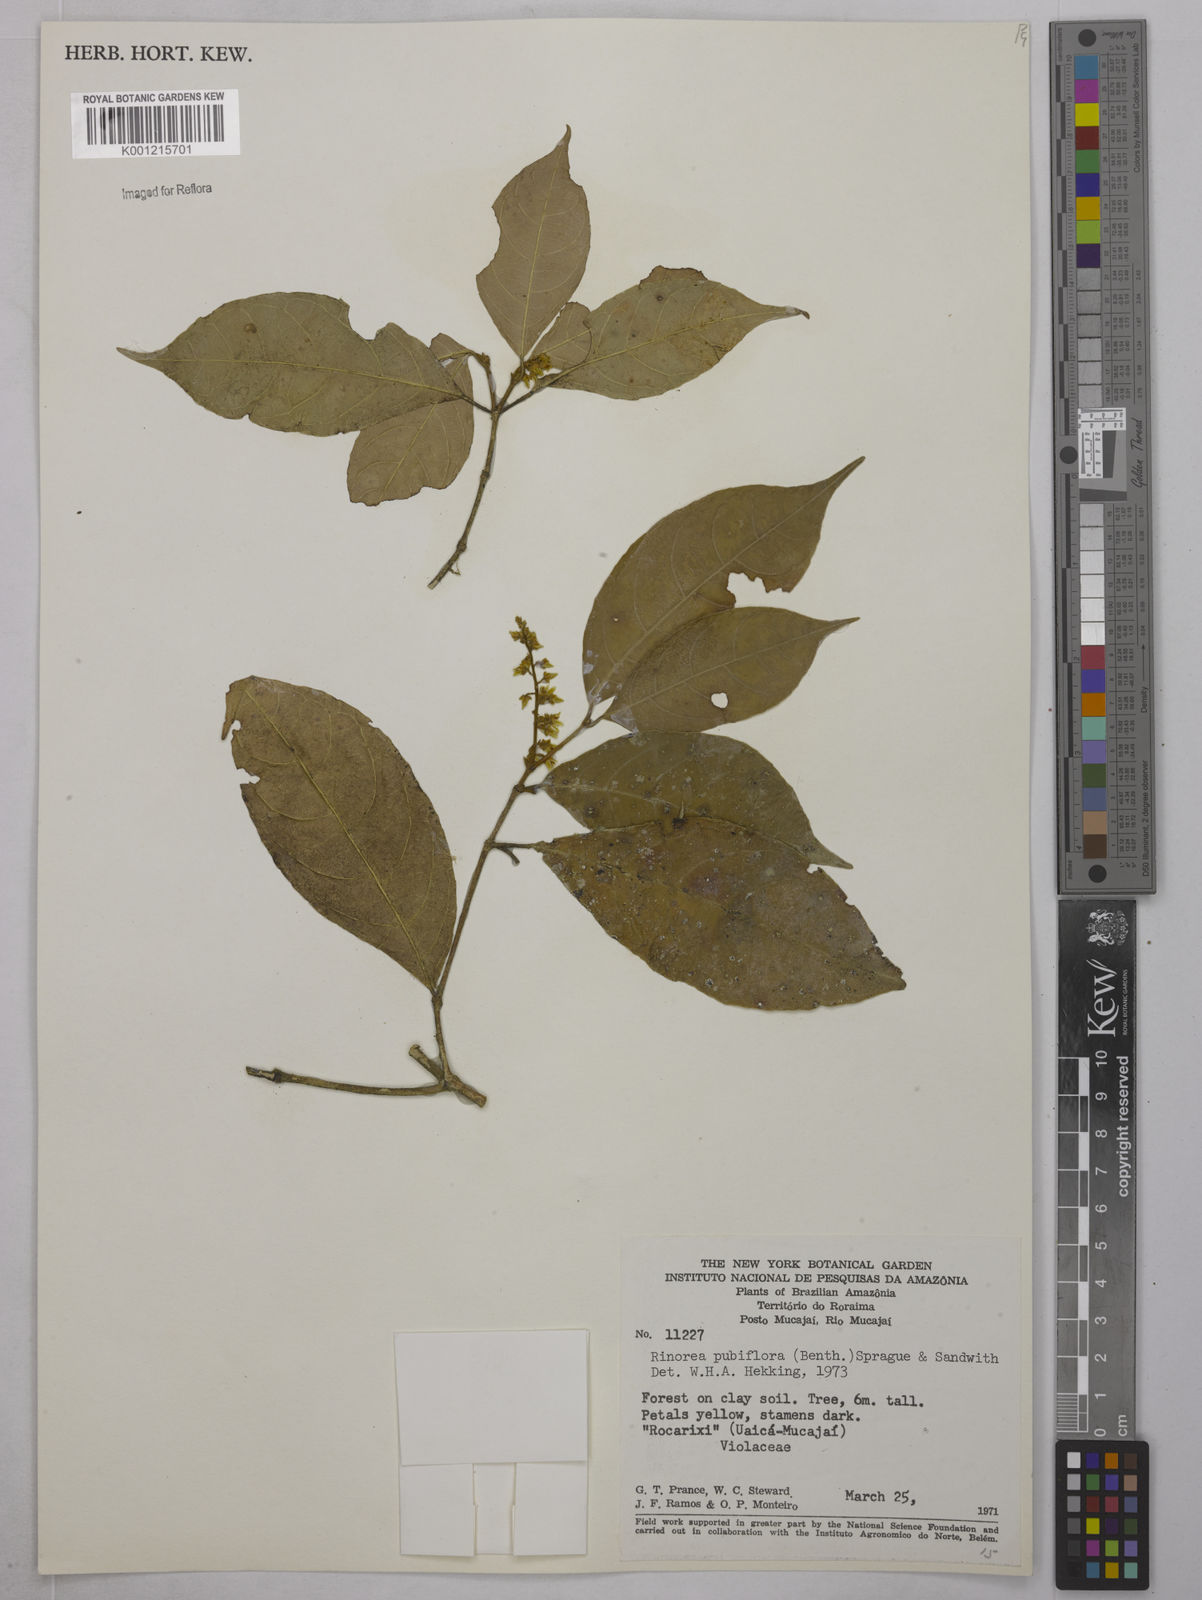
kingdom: Plantae
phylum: Tracheophyta
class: Magnoliopsida
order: Malpighiales
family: Violaceae
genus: Rinorea
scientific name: Rinorea pubiflora
